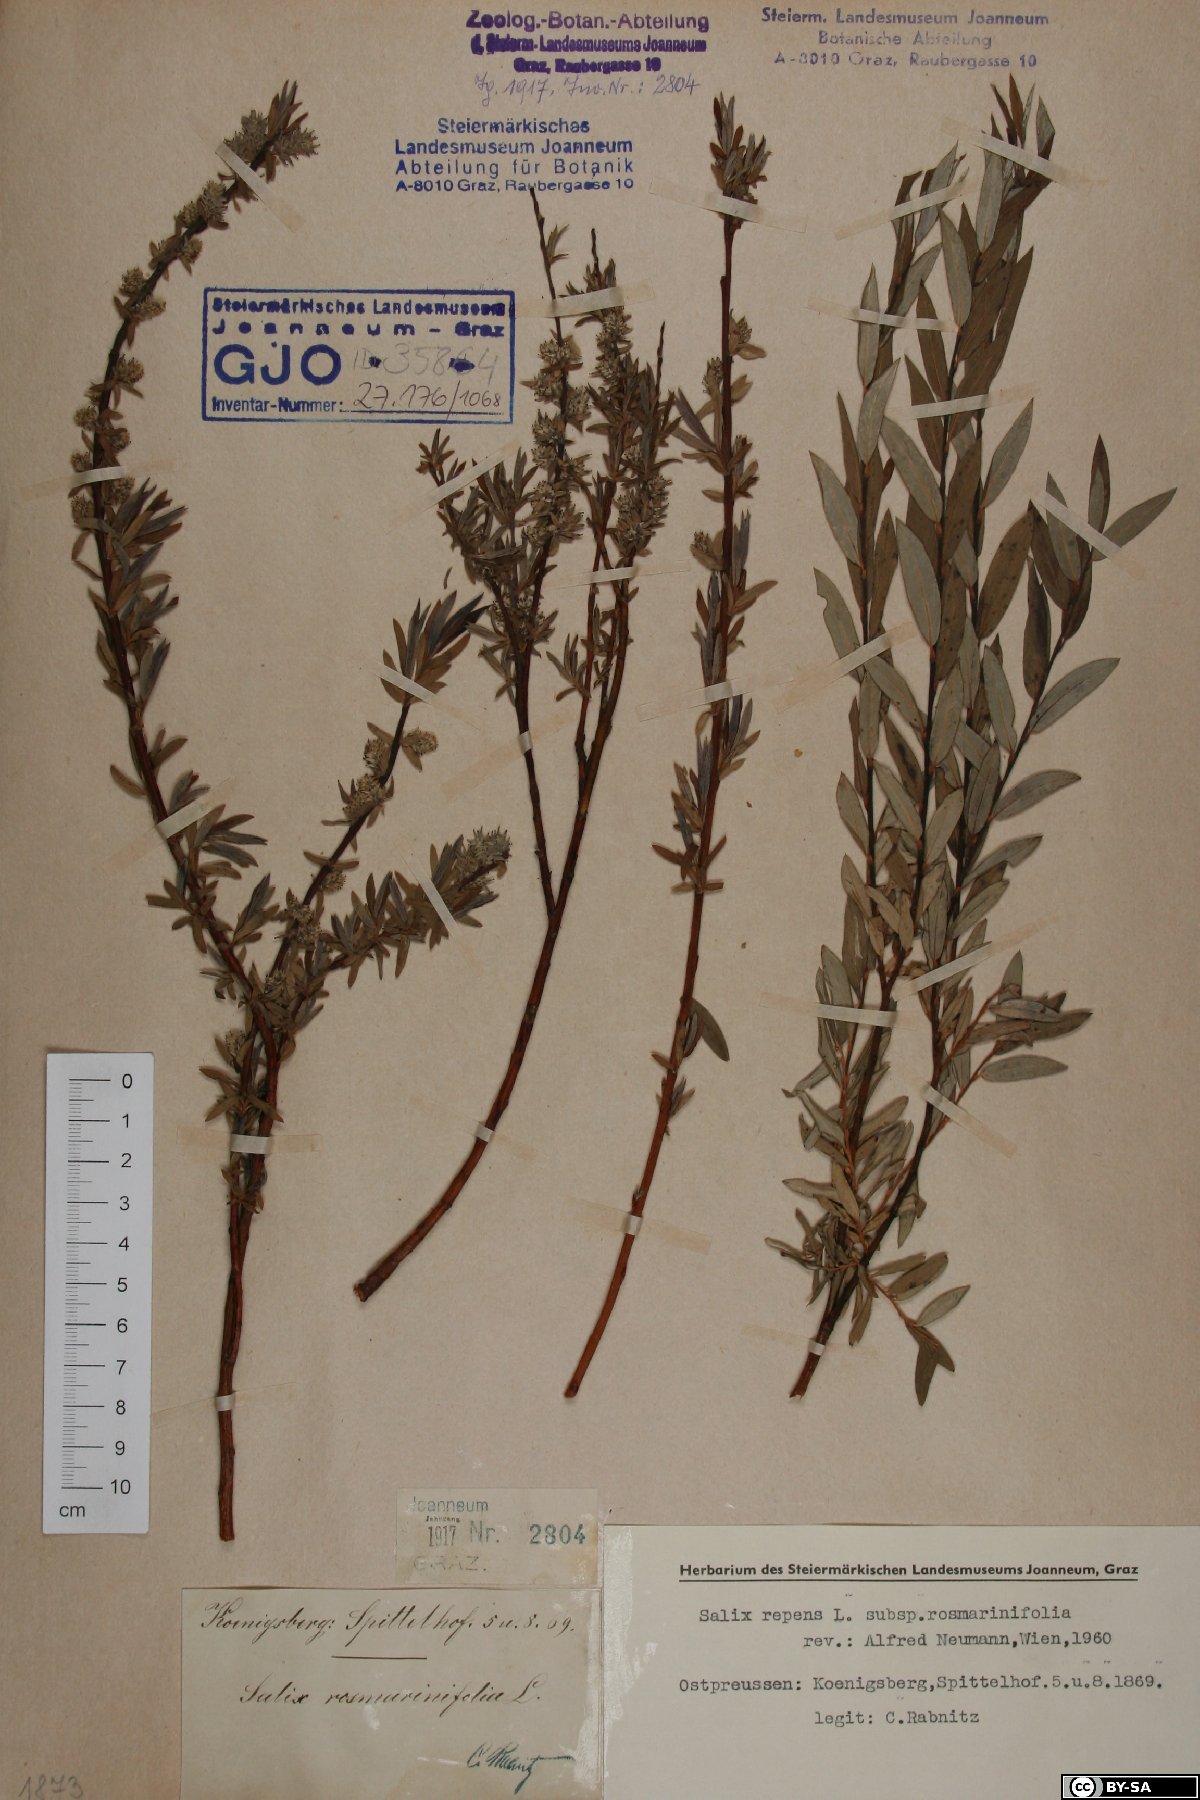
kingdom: Plantae
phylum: Tracheophyta
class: Magnoliopsida
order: Malpighiales
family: Salicaceae
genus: Salix
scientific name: Salix repens
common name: Creeping willow
